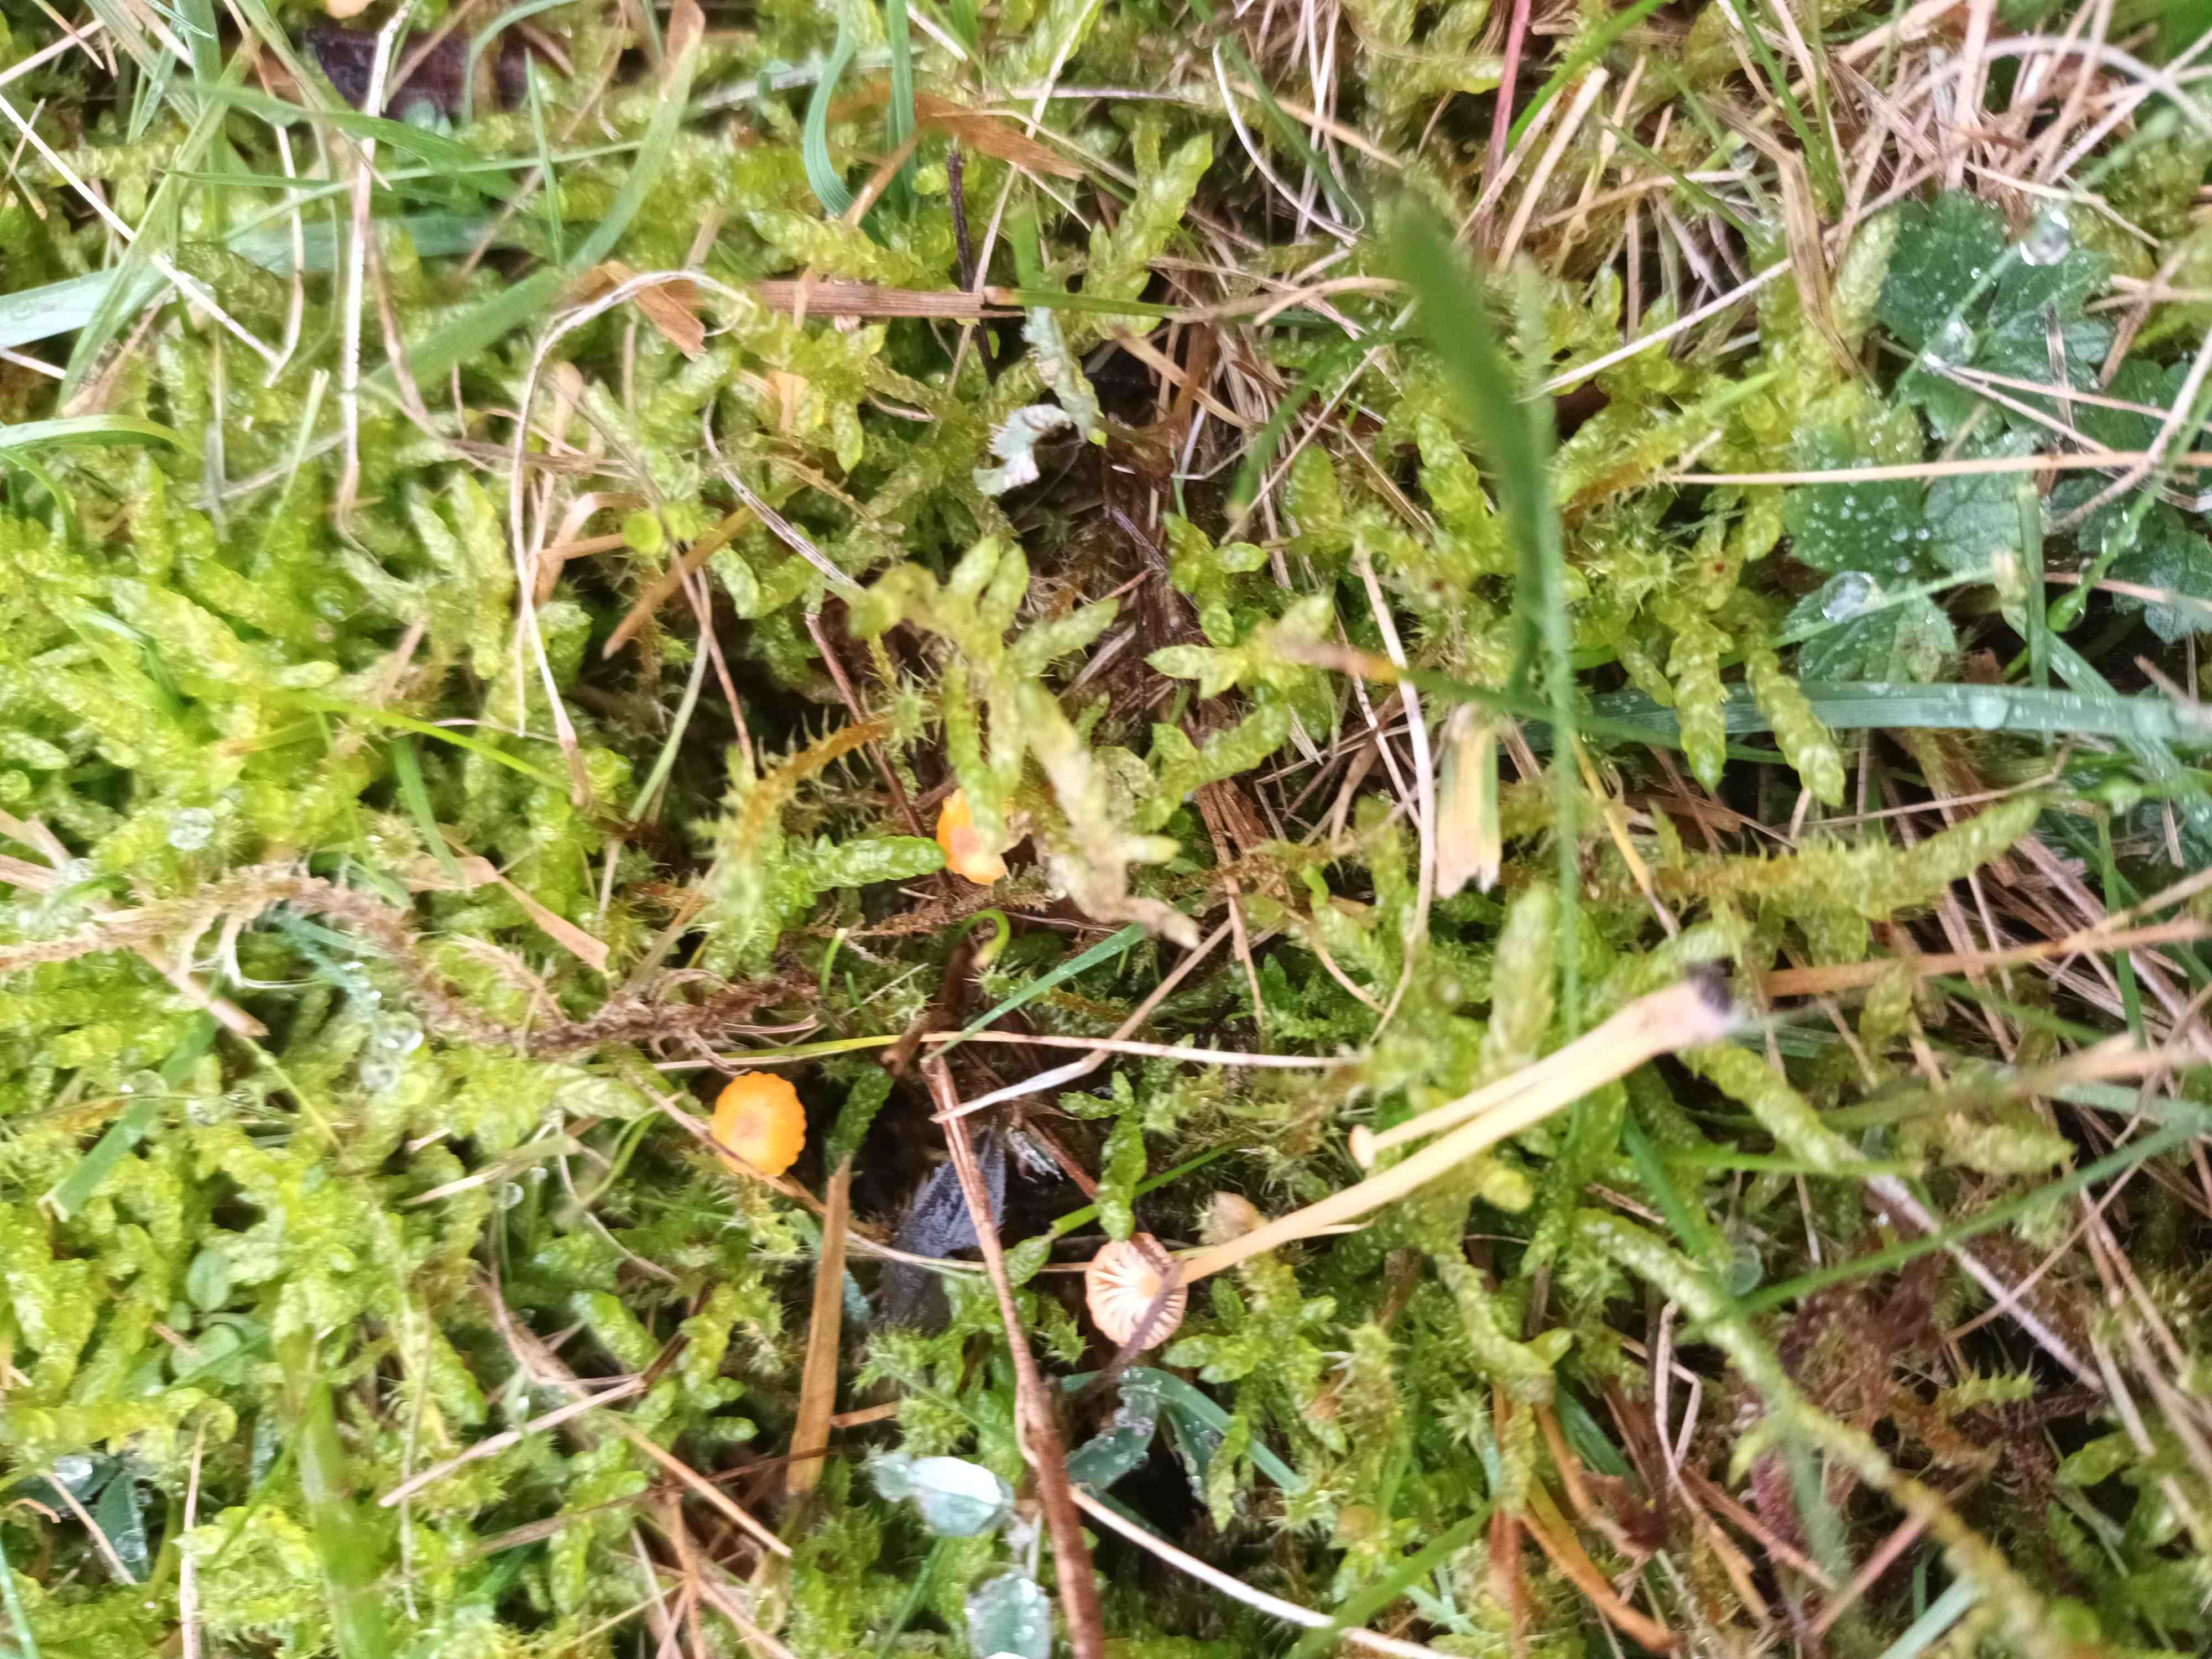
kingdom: Fungi
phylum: Basidiomycota
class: Agaricomycetes
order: Hymenochaetales
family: Rickenellaceae
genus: Rickenella
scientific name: Rickenella fibula
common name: orange mosnavlehat
